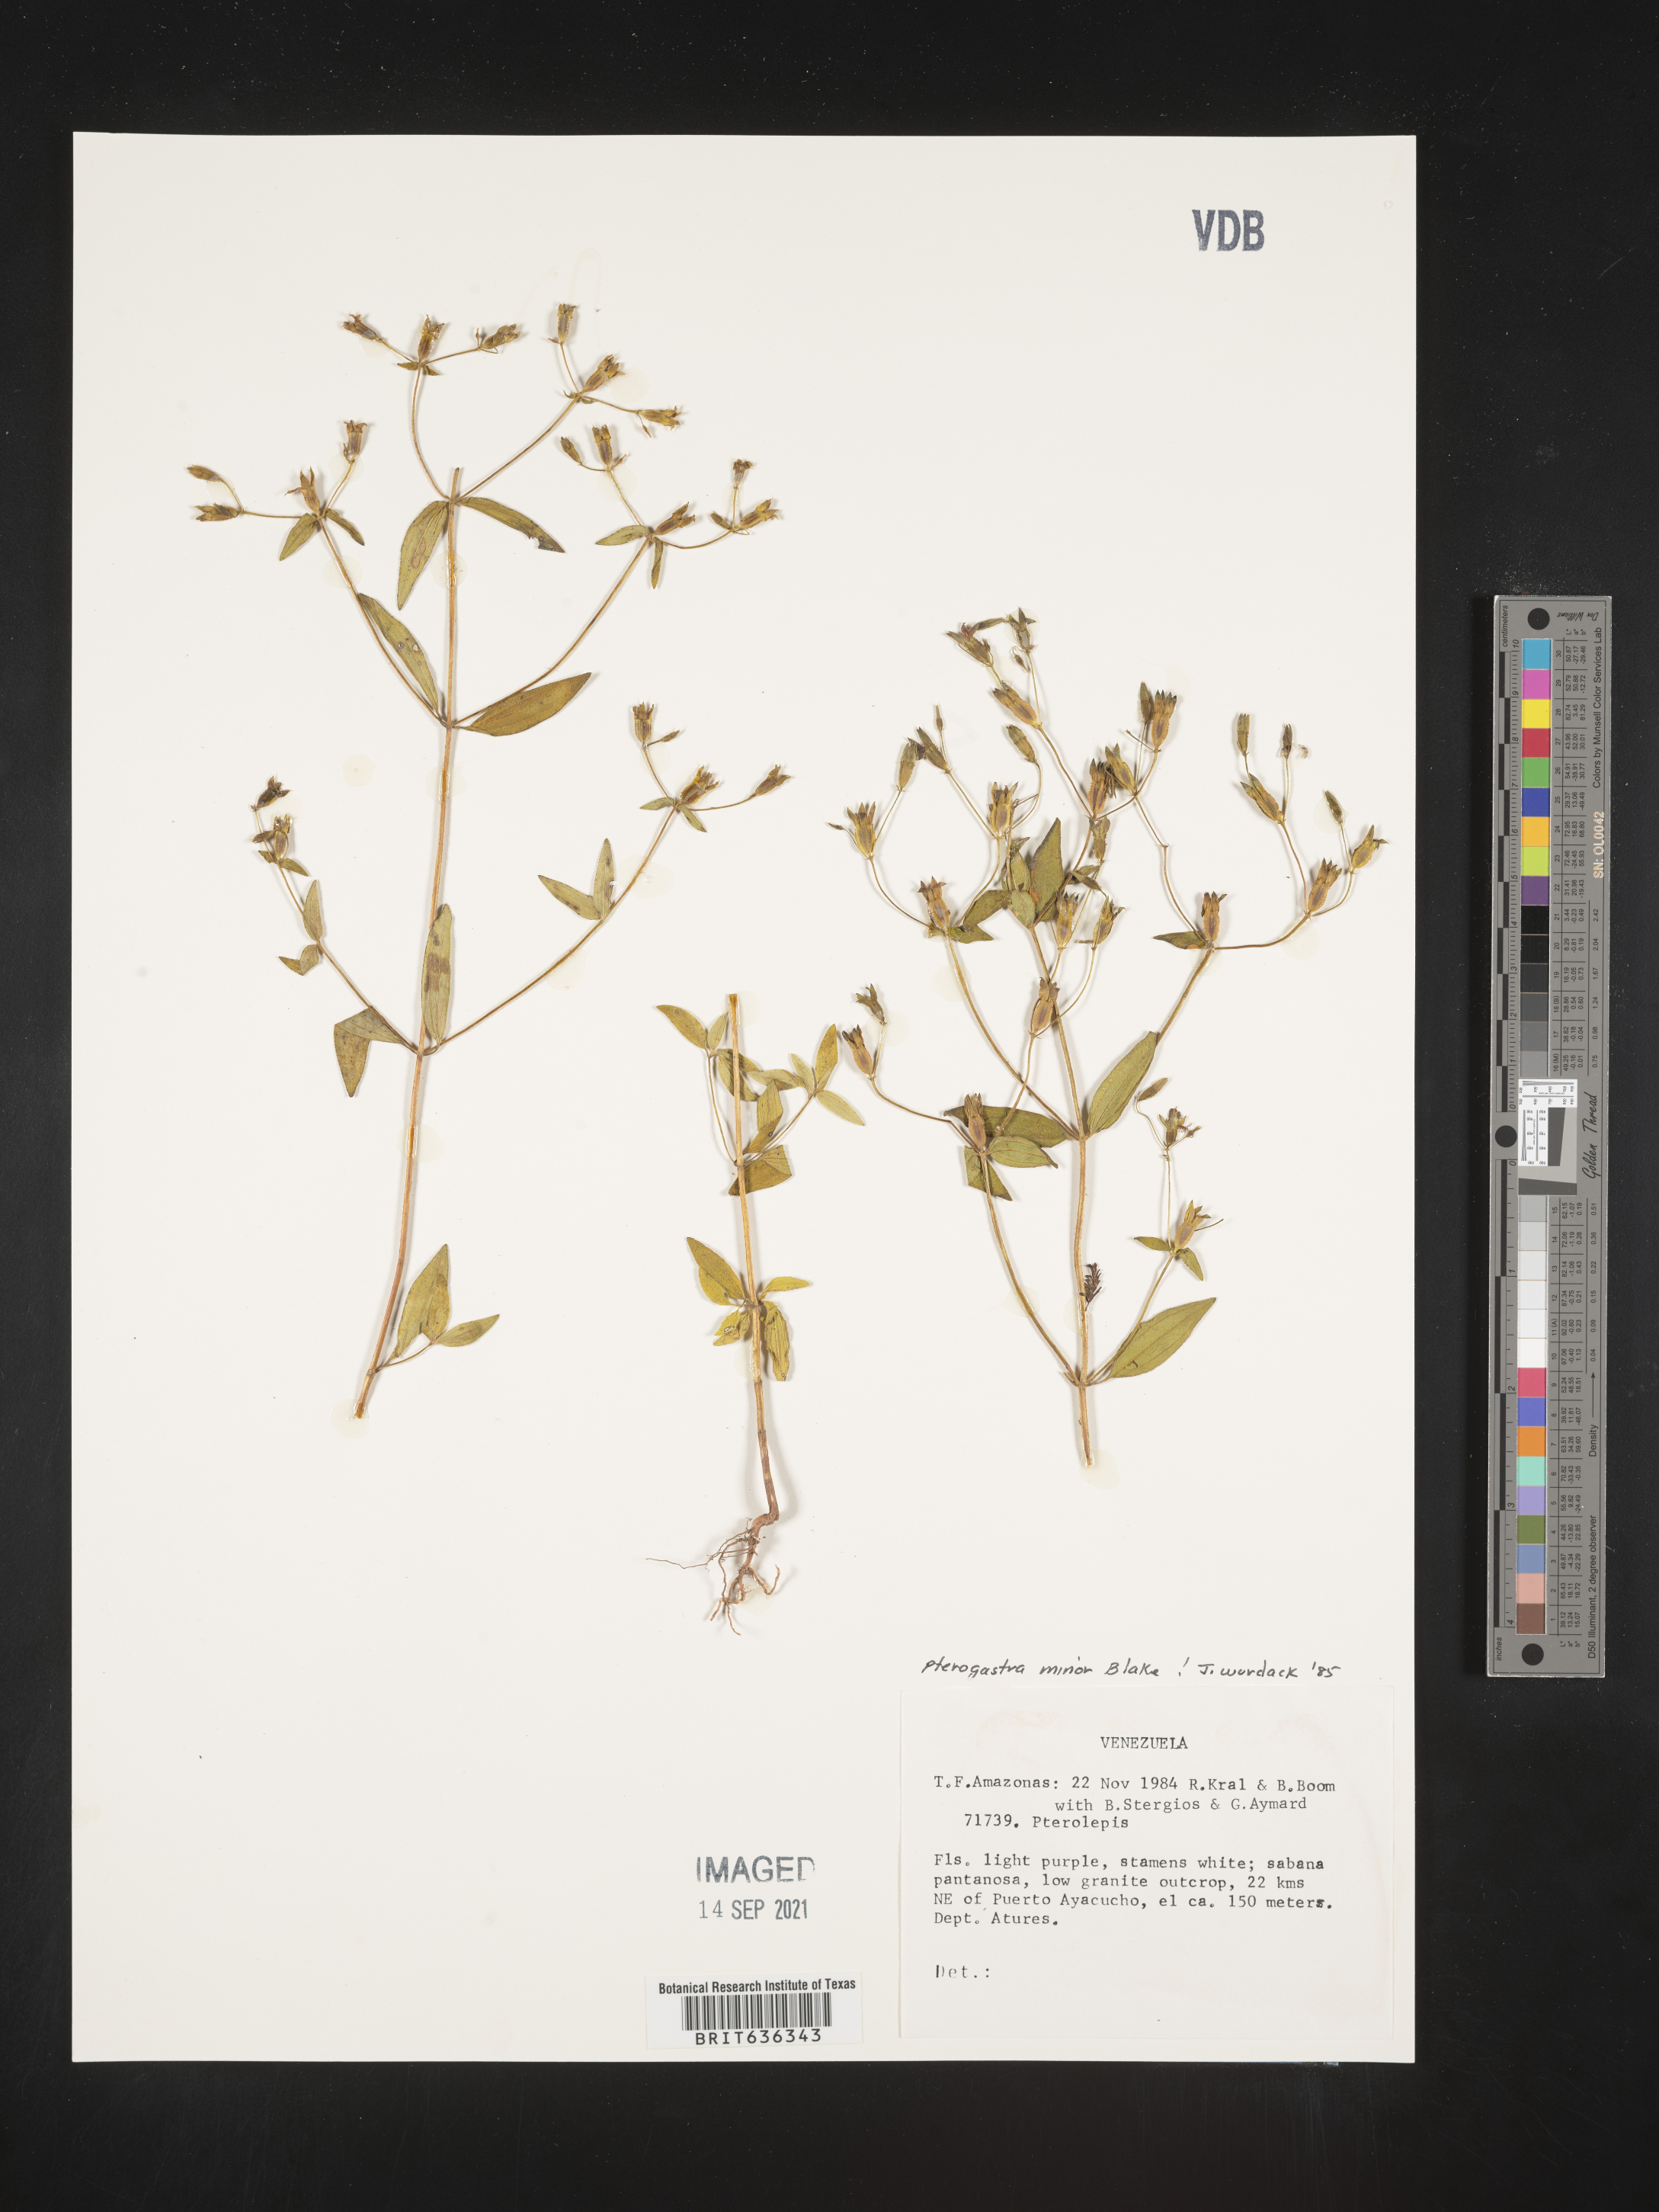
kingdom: Plantae
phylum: Tracheophyta
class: Magnoliopsida
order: Myrtales
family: Melastomataceae
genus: Pterogastra
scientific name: Pterogastra
